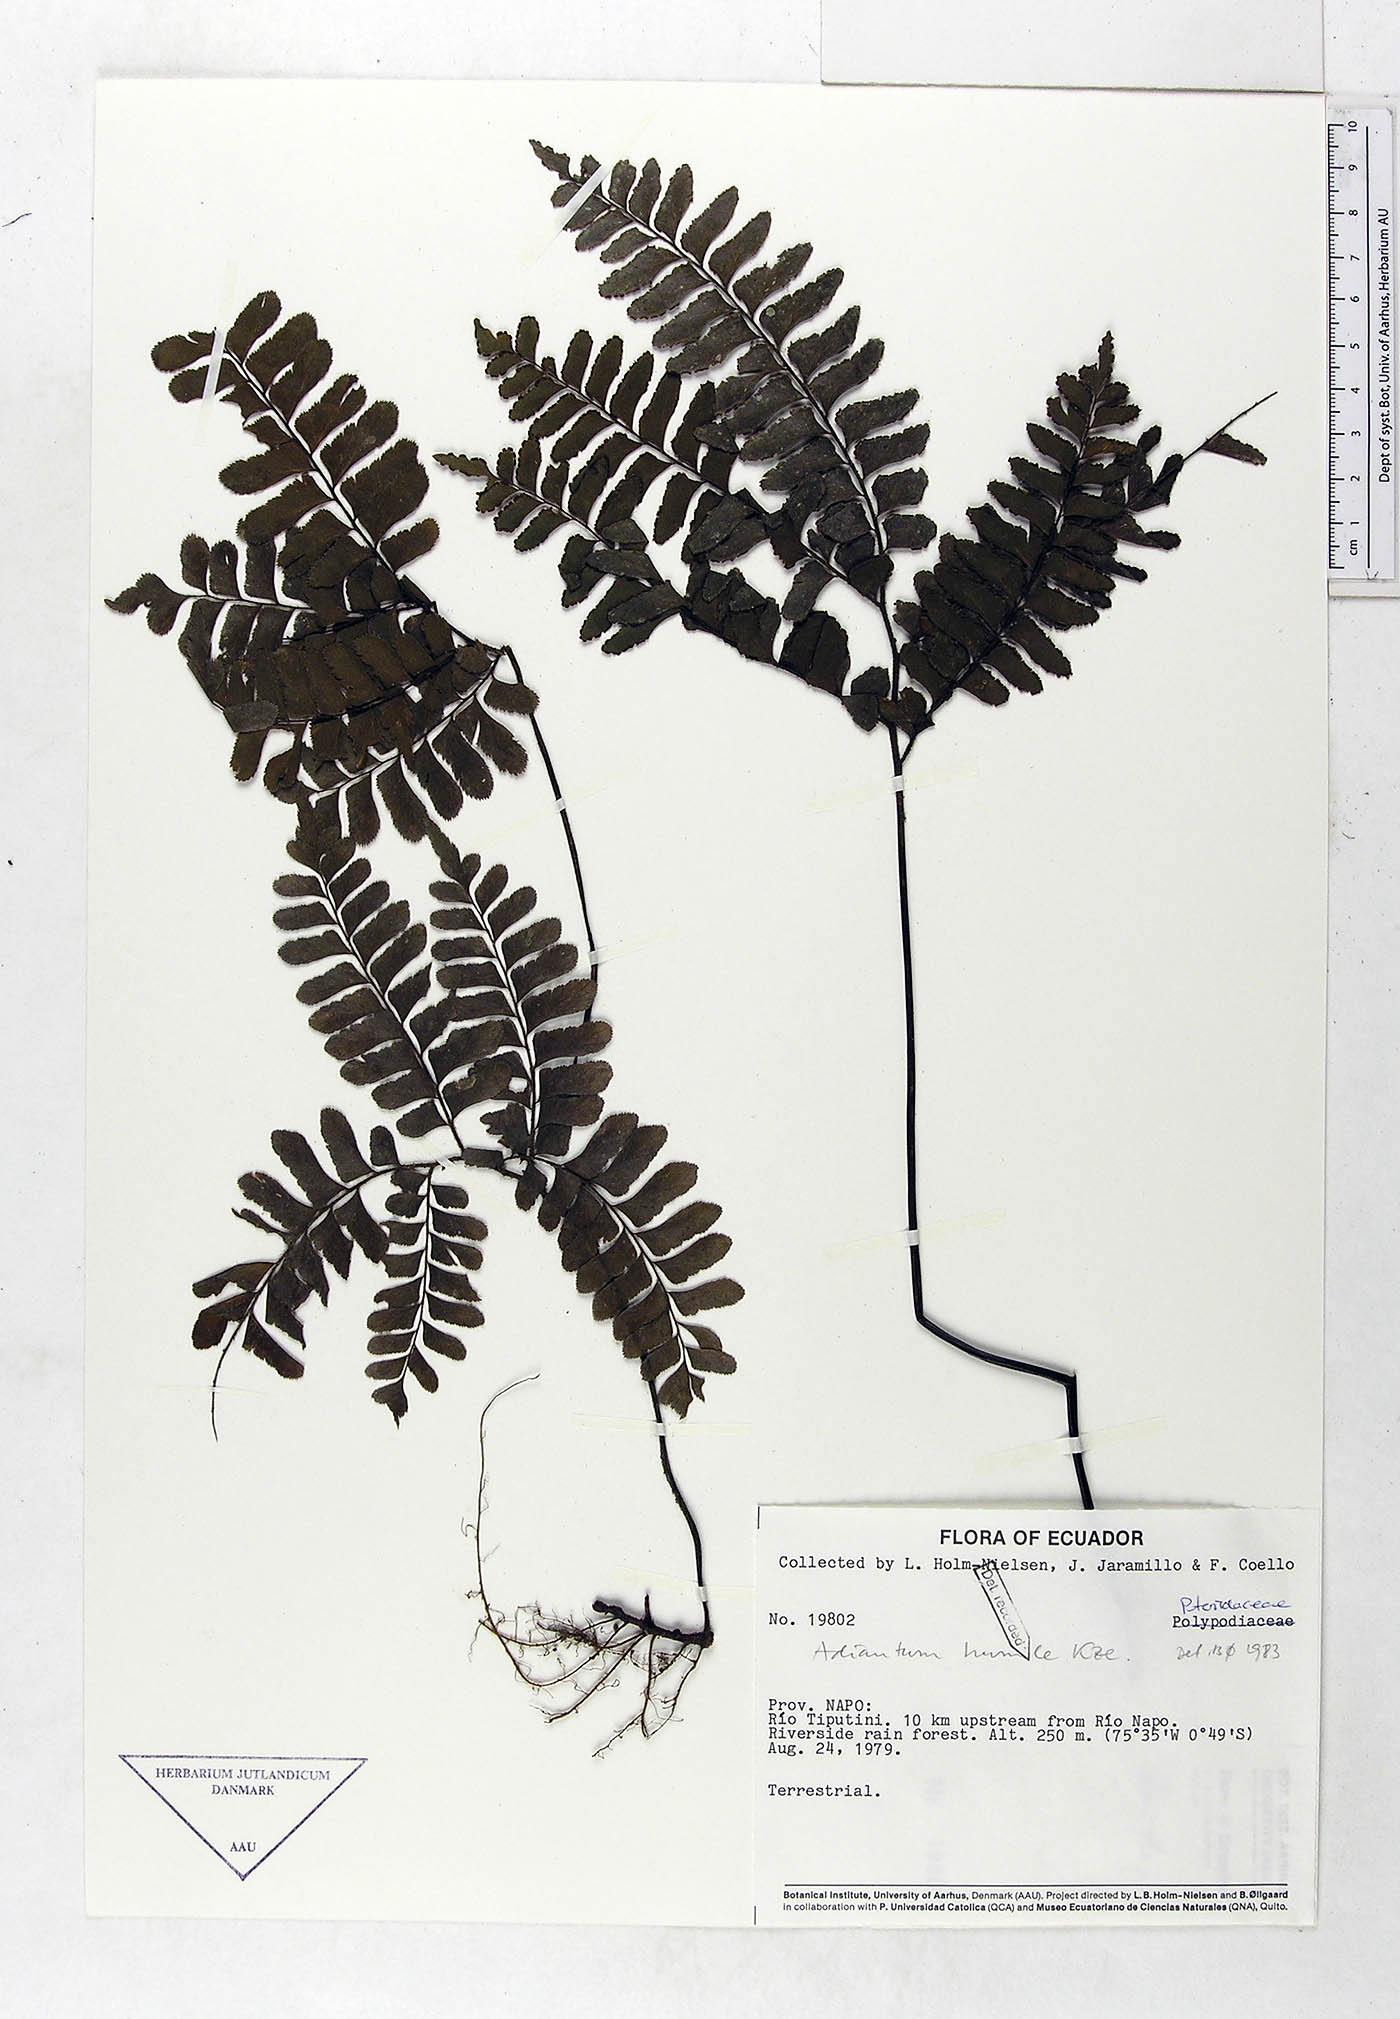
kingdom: Plantae
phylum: Tracheophyta
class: Polypodiopsida
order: Polypodiales
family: Pteridaceae
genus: Adiantum
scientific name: Adiantum humile
